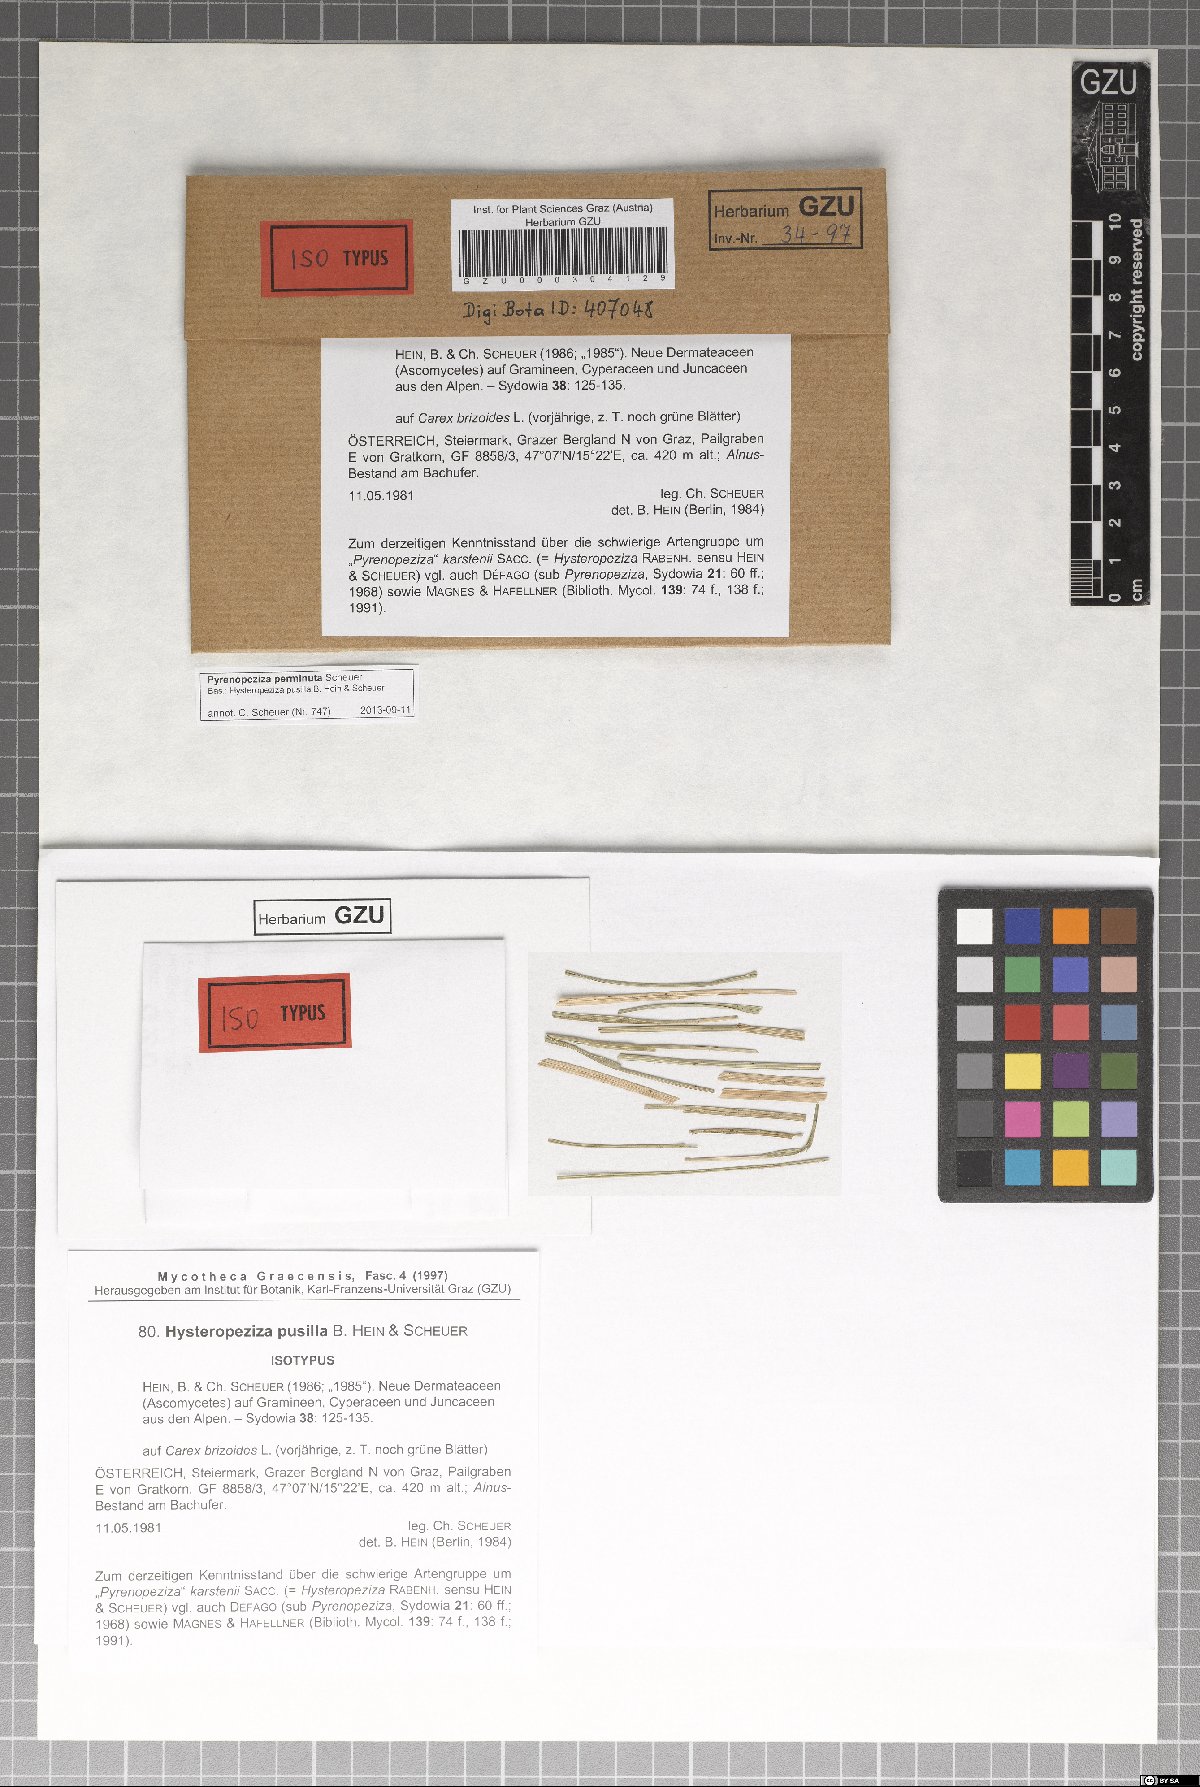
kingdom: Fungi
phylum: Ascomycota
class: Leotiomycetes
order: Helotiales
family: Ploettnerulaceae
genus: Pyrenopeziza
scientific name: Pyrenopeziza perminuta
